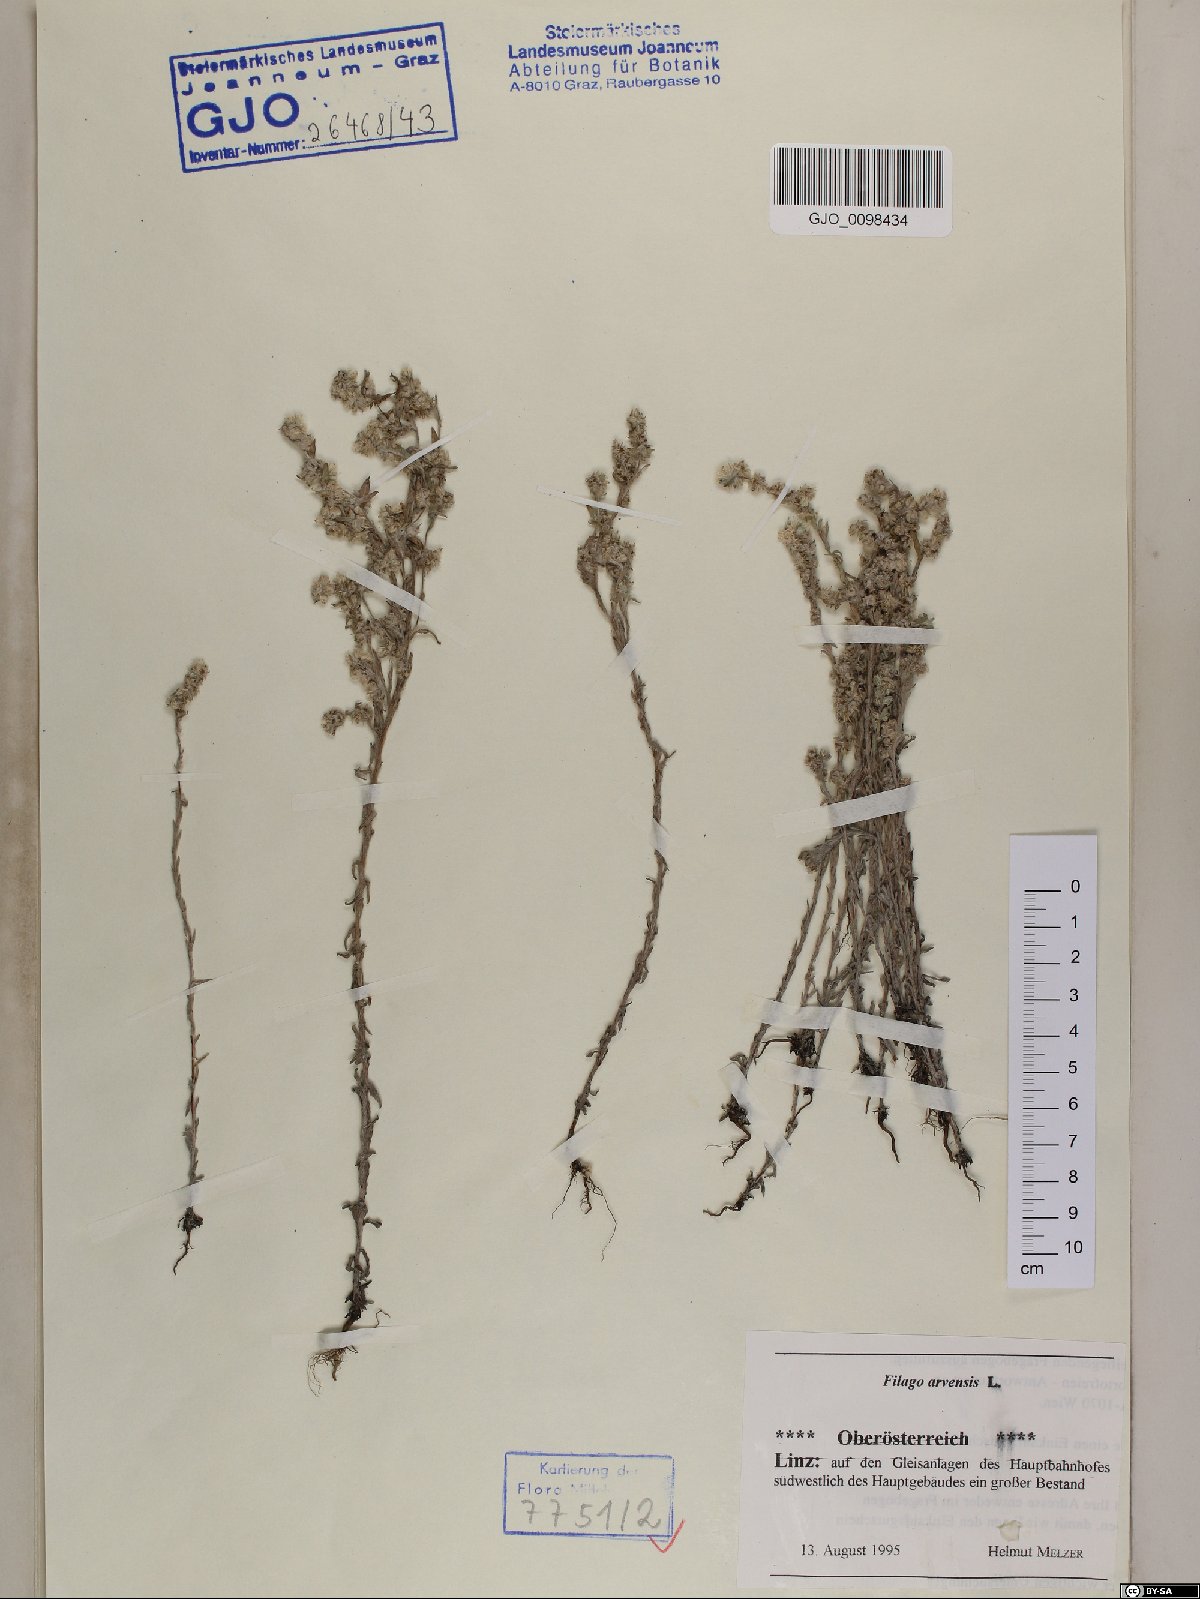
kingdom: Plantae
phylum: Tracheophyta
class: Magnoliopsida
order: Asterales
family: Asteraceae
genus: Filago
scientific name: Filago arvensis
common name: Field cudweed
